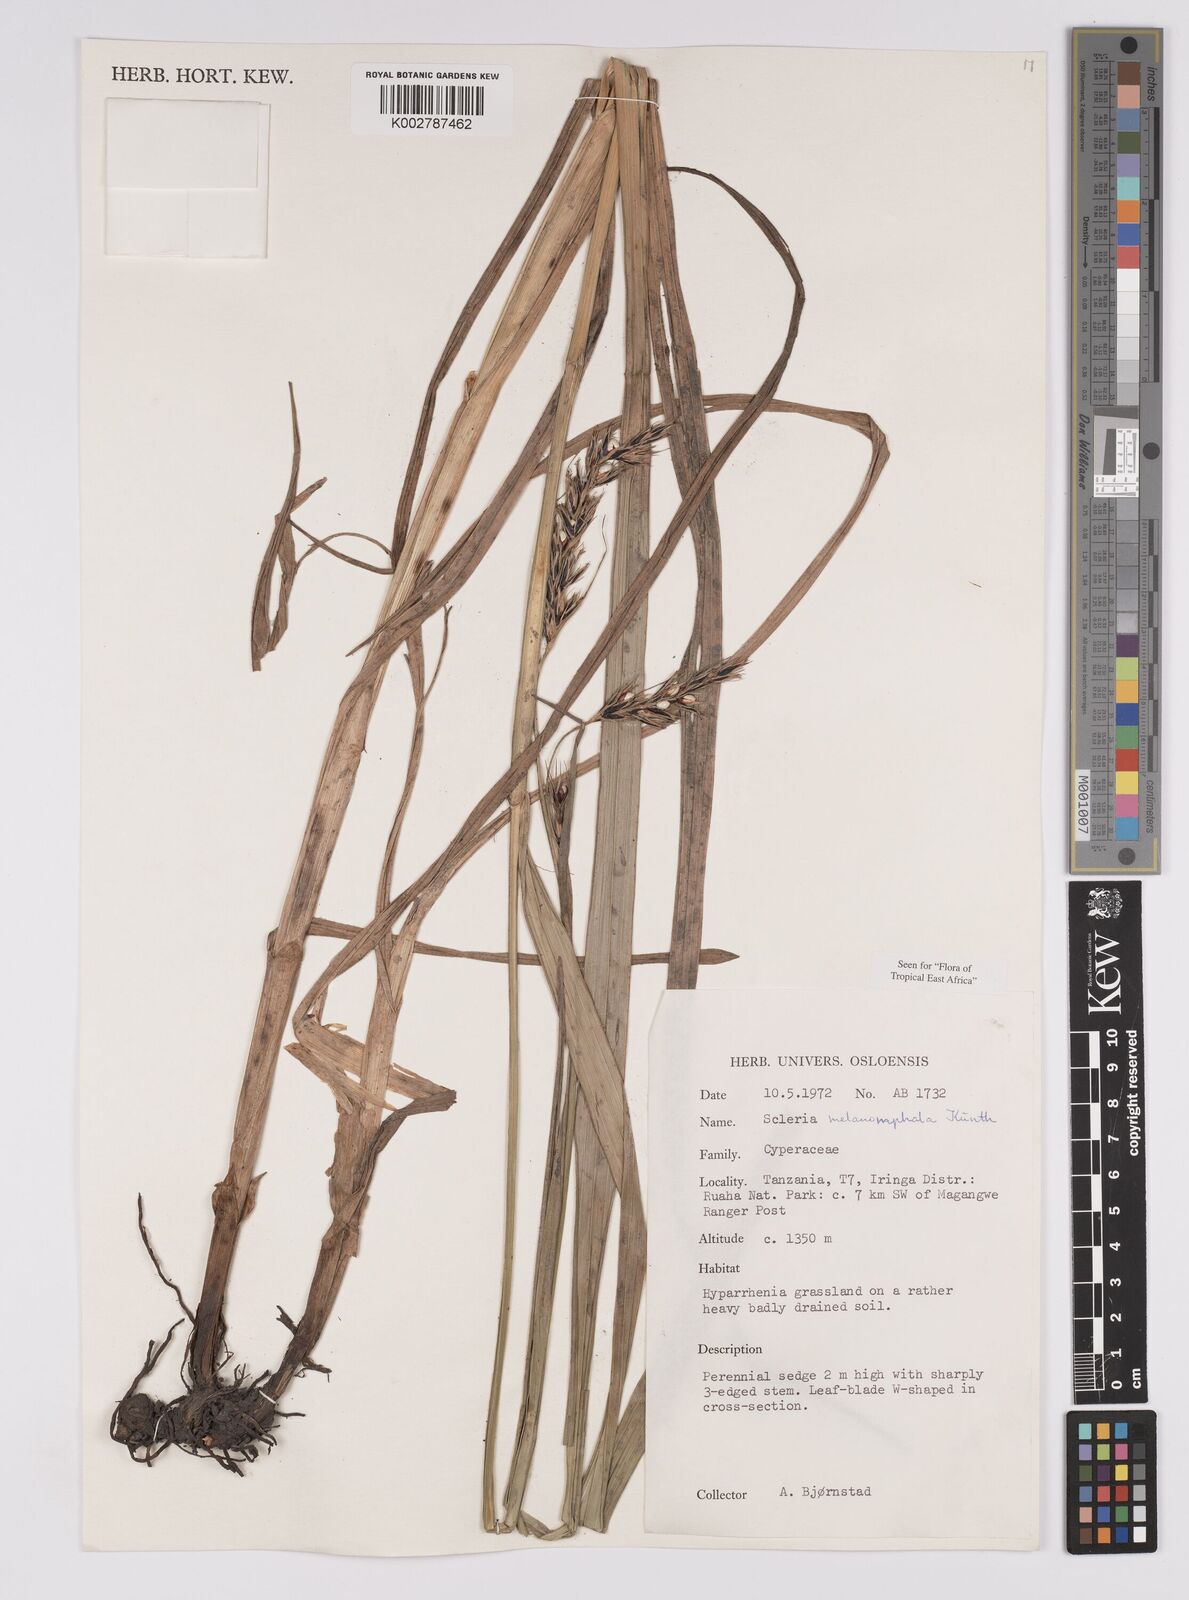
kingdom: Plantae
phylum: Tracheophyta
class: Liliopsida
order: Poales
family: Cyperaceae
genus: Scleria
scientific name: Scleria melanomphala
